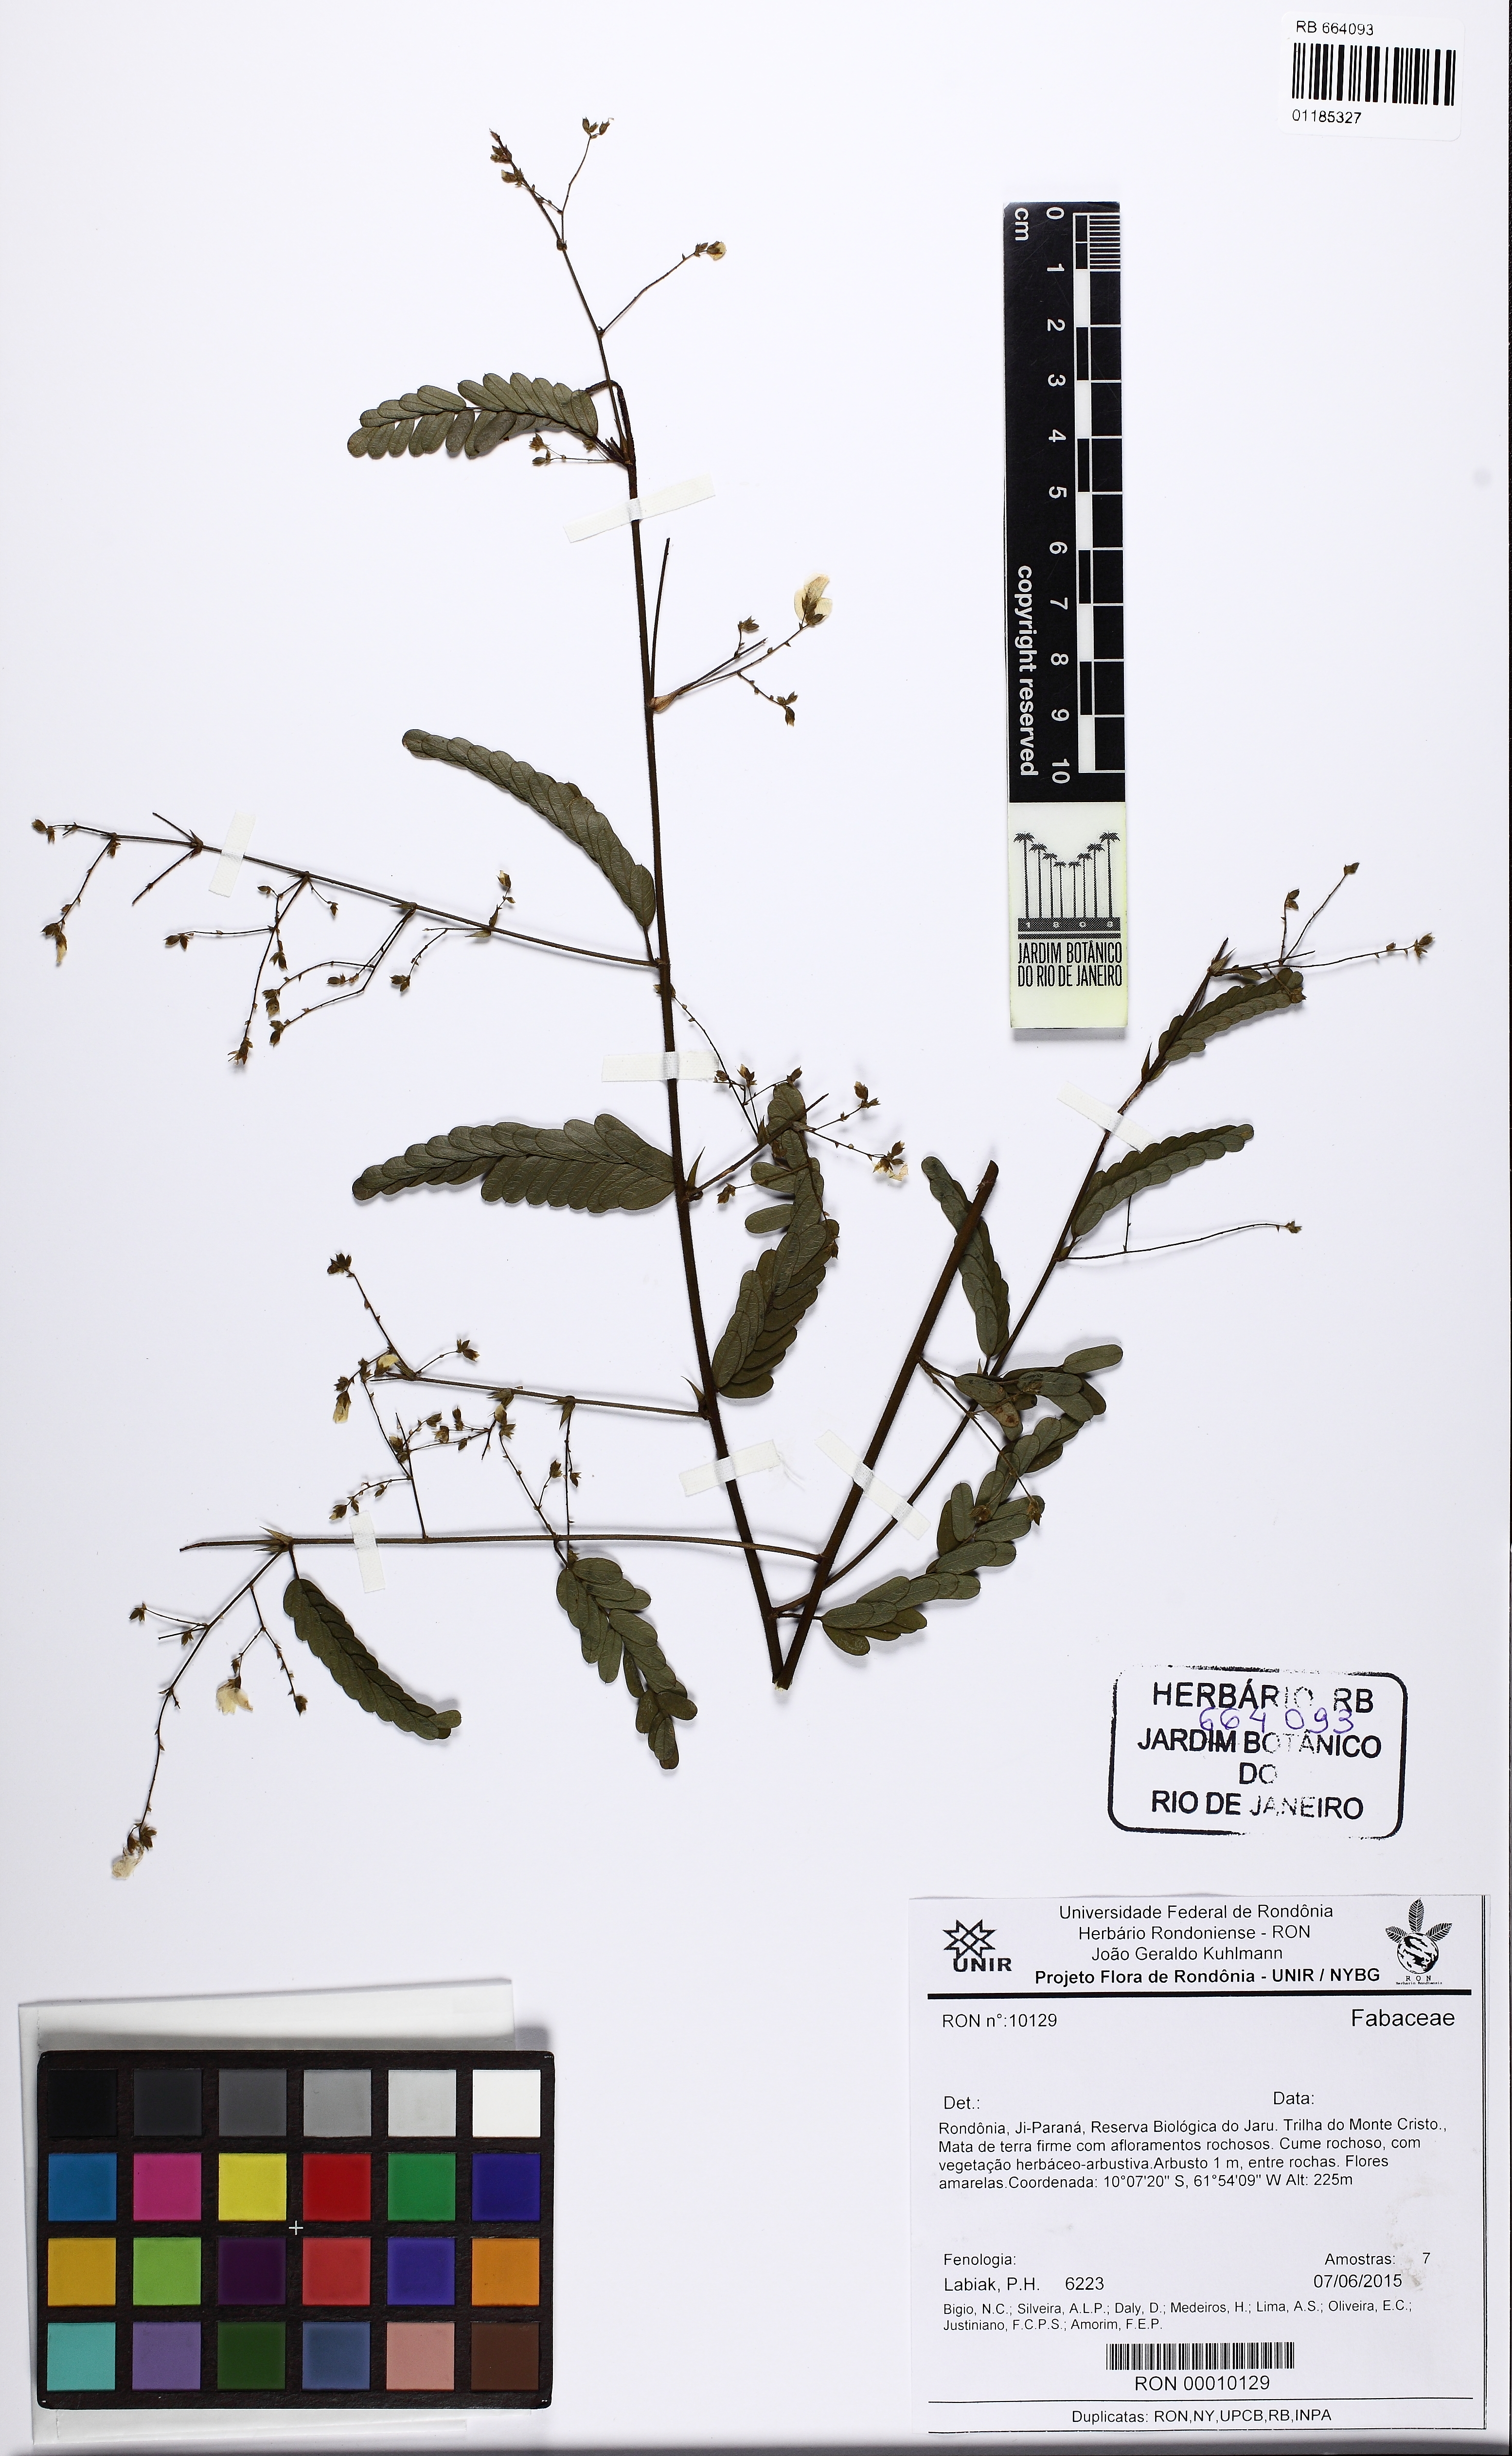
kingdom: Plantae
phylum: Tracheophyta
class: Magnoliopsida
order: Fabales
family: Fabaceae
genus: Aeschynomene
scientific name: Aeschynomene
